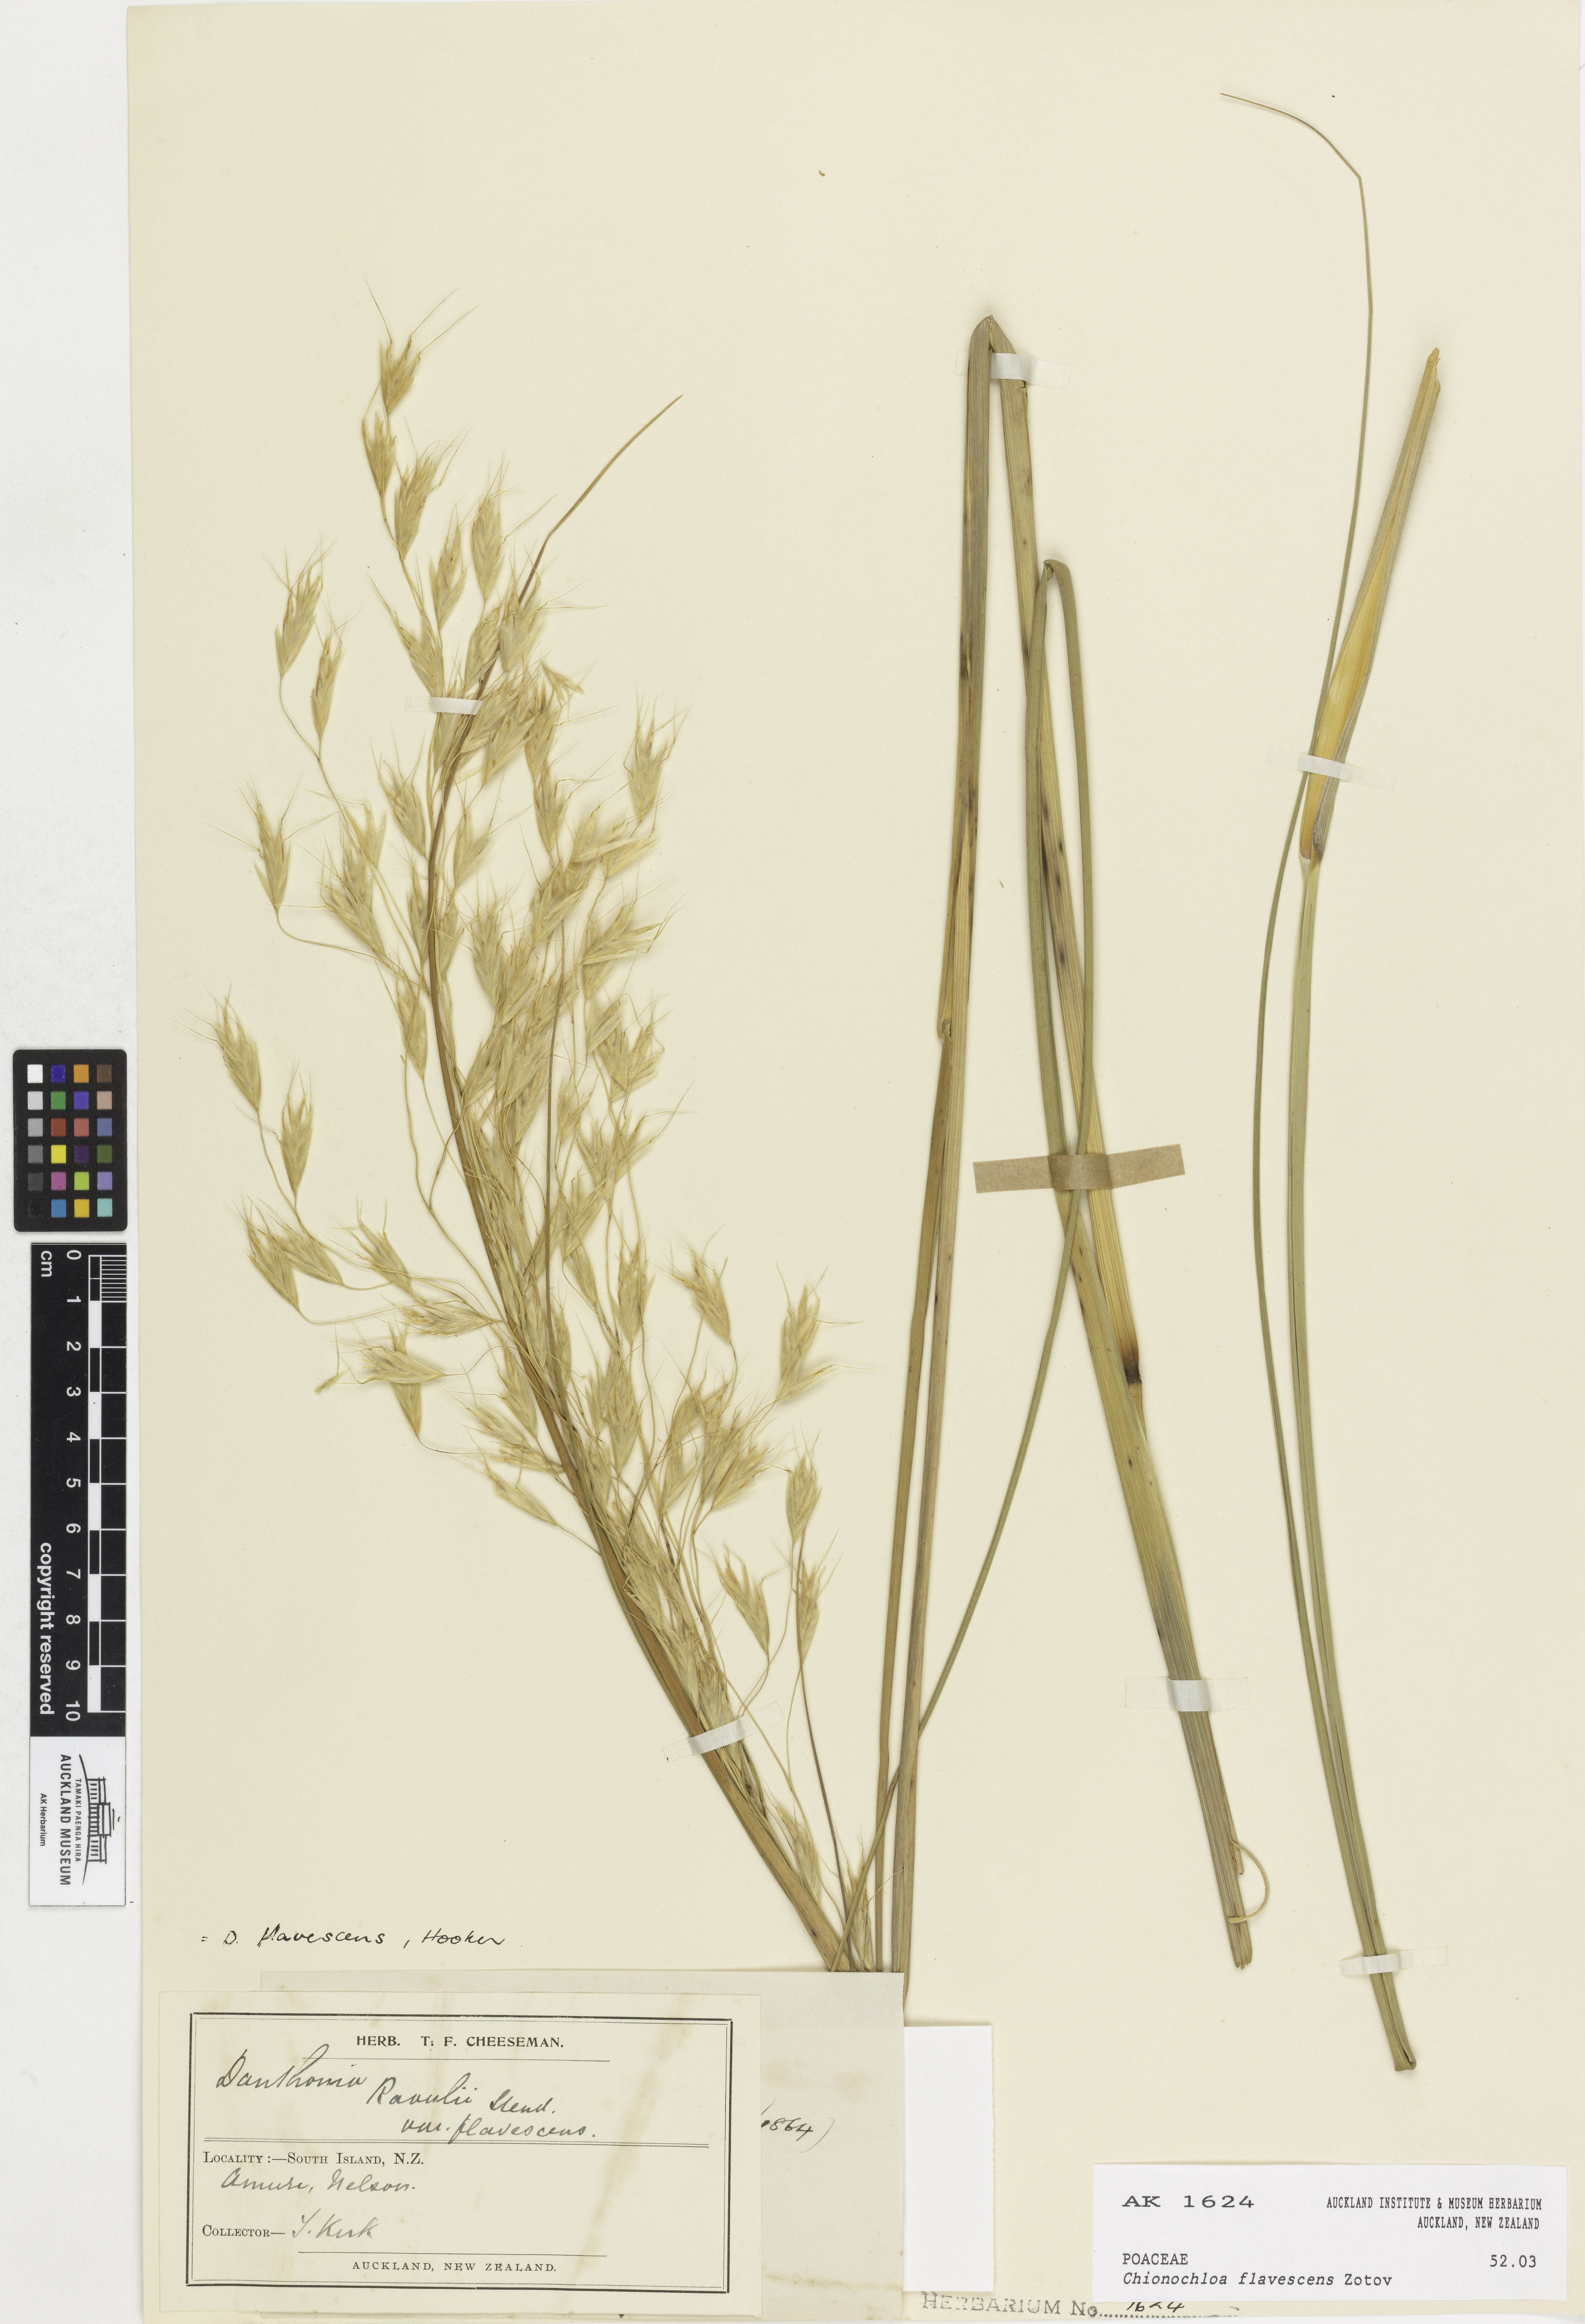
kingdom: Plantae
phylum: Tracheophyta
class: Liliopsida
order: Poales
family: Poaceae
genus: Chionochloa
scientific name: Chionochloa flavescens
